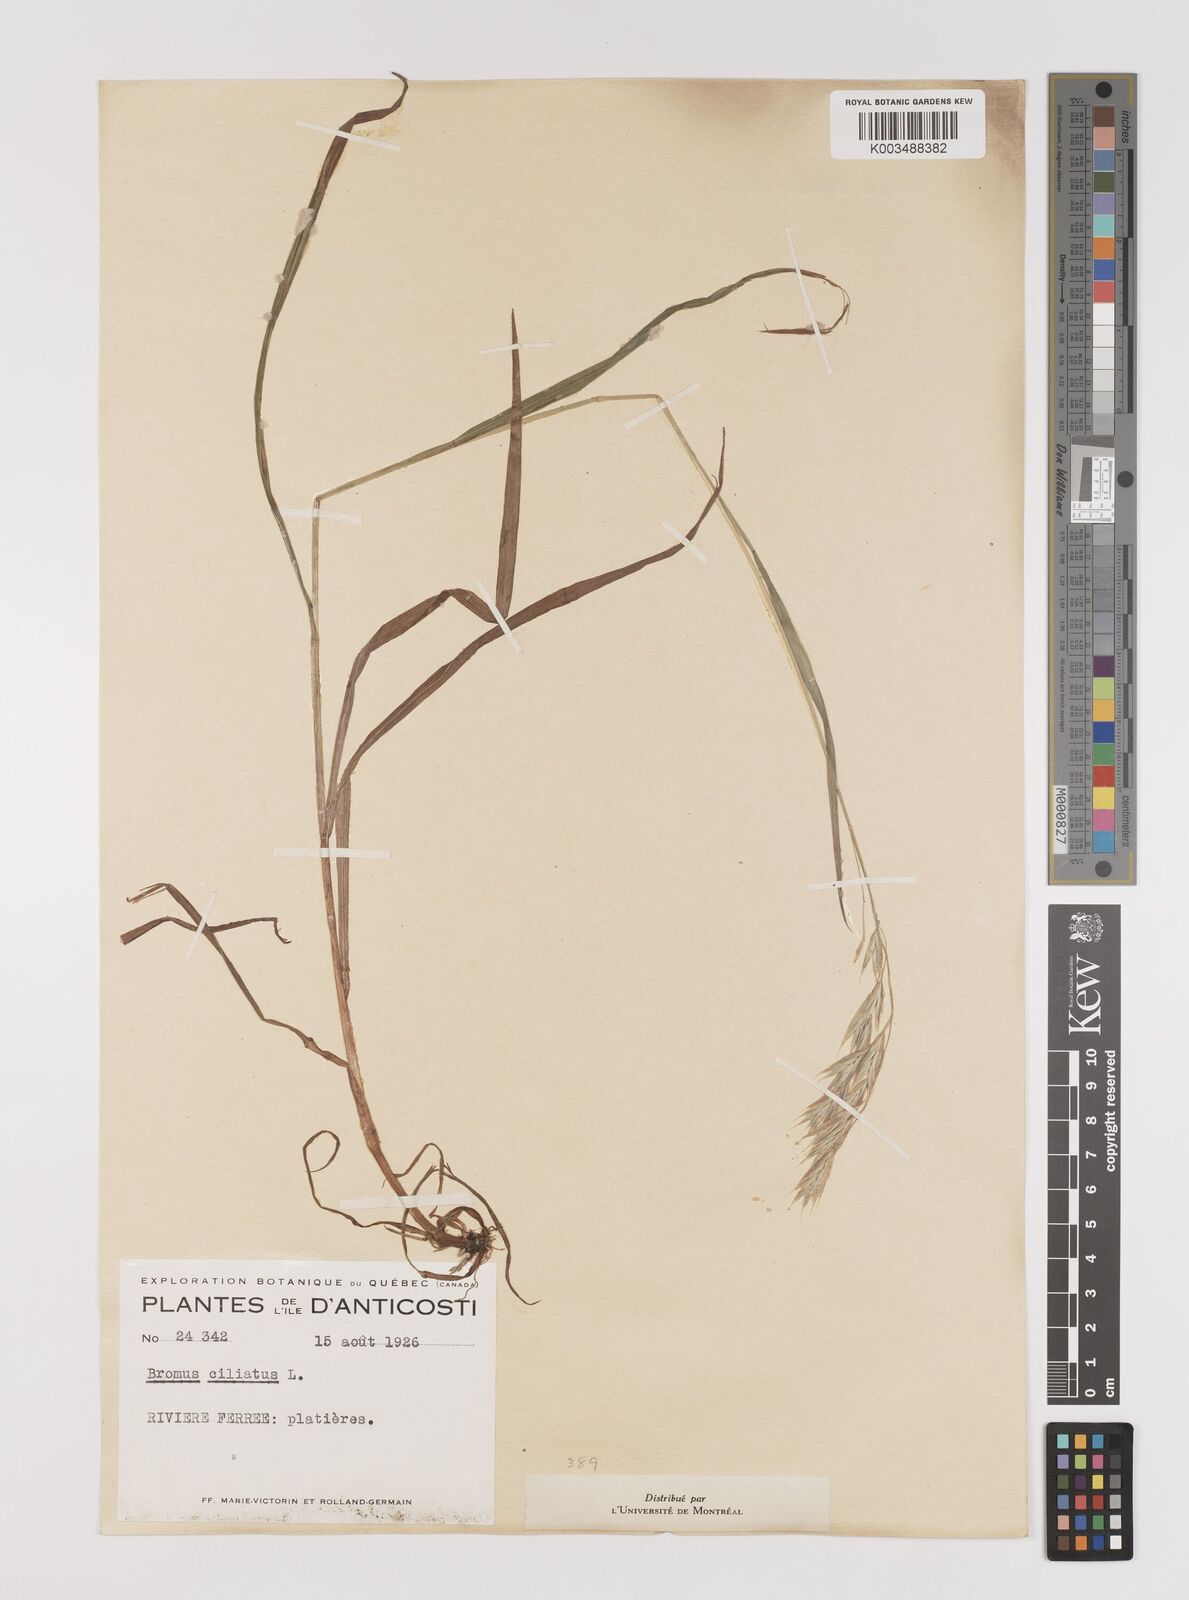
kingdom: Plantae
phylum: Tracheophyta
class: Liliopsida
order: Poales
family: Poaceae
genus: Bromus
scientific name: Bromus ciliatus
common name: Fringe brome
